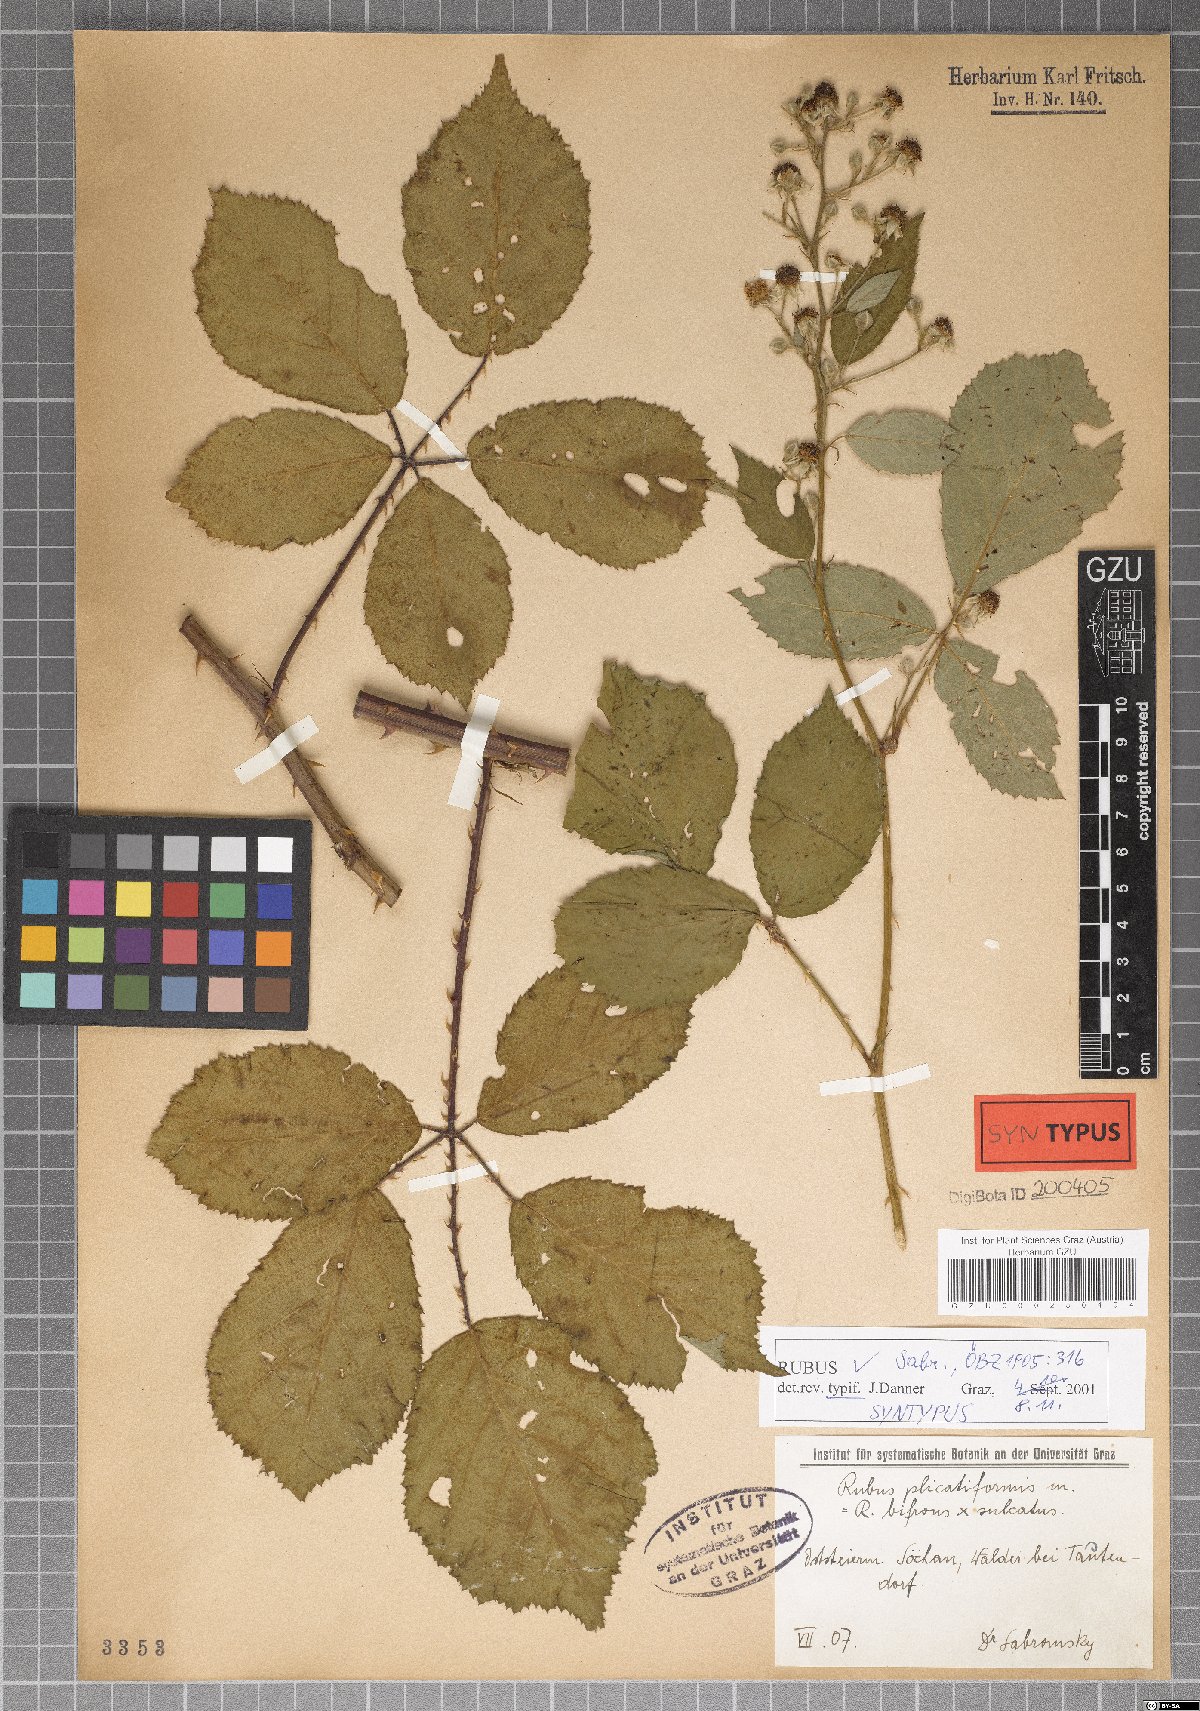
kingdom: Plantae
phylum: Tracheophyta
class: Magnoliopsida
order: Rosales
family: Rosaceae
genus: Rubus
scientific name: Rubus plicatiformis
